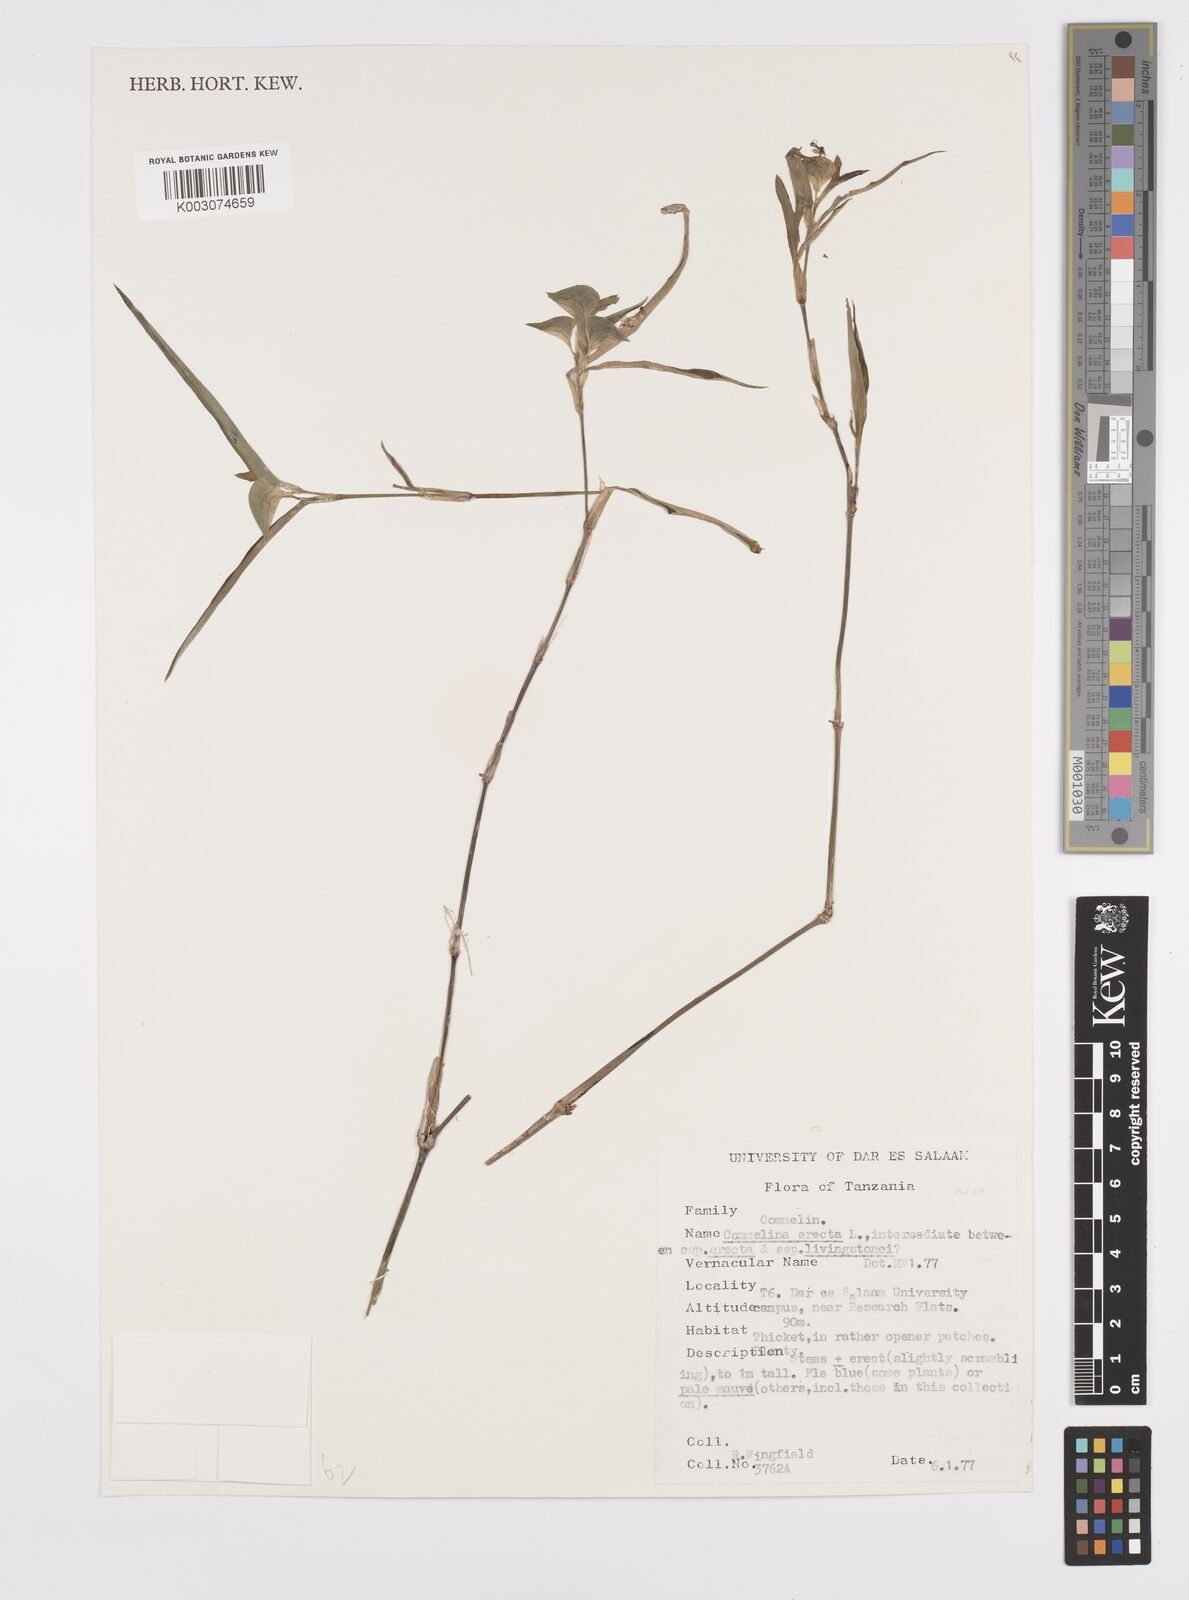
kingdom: Plantae
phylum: Tracheophyta
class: Liliopsida
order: Commelinales
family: Commelinaceae
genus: Commelina
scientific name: Commelina erecta
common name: Blousel blommetjie
